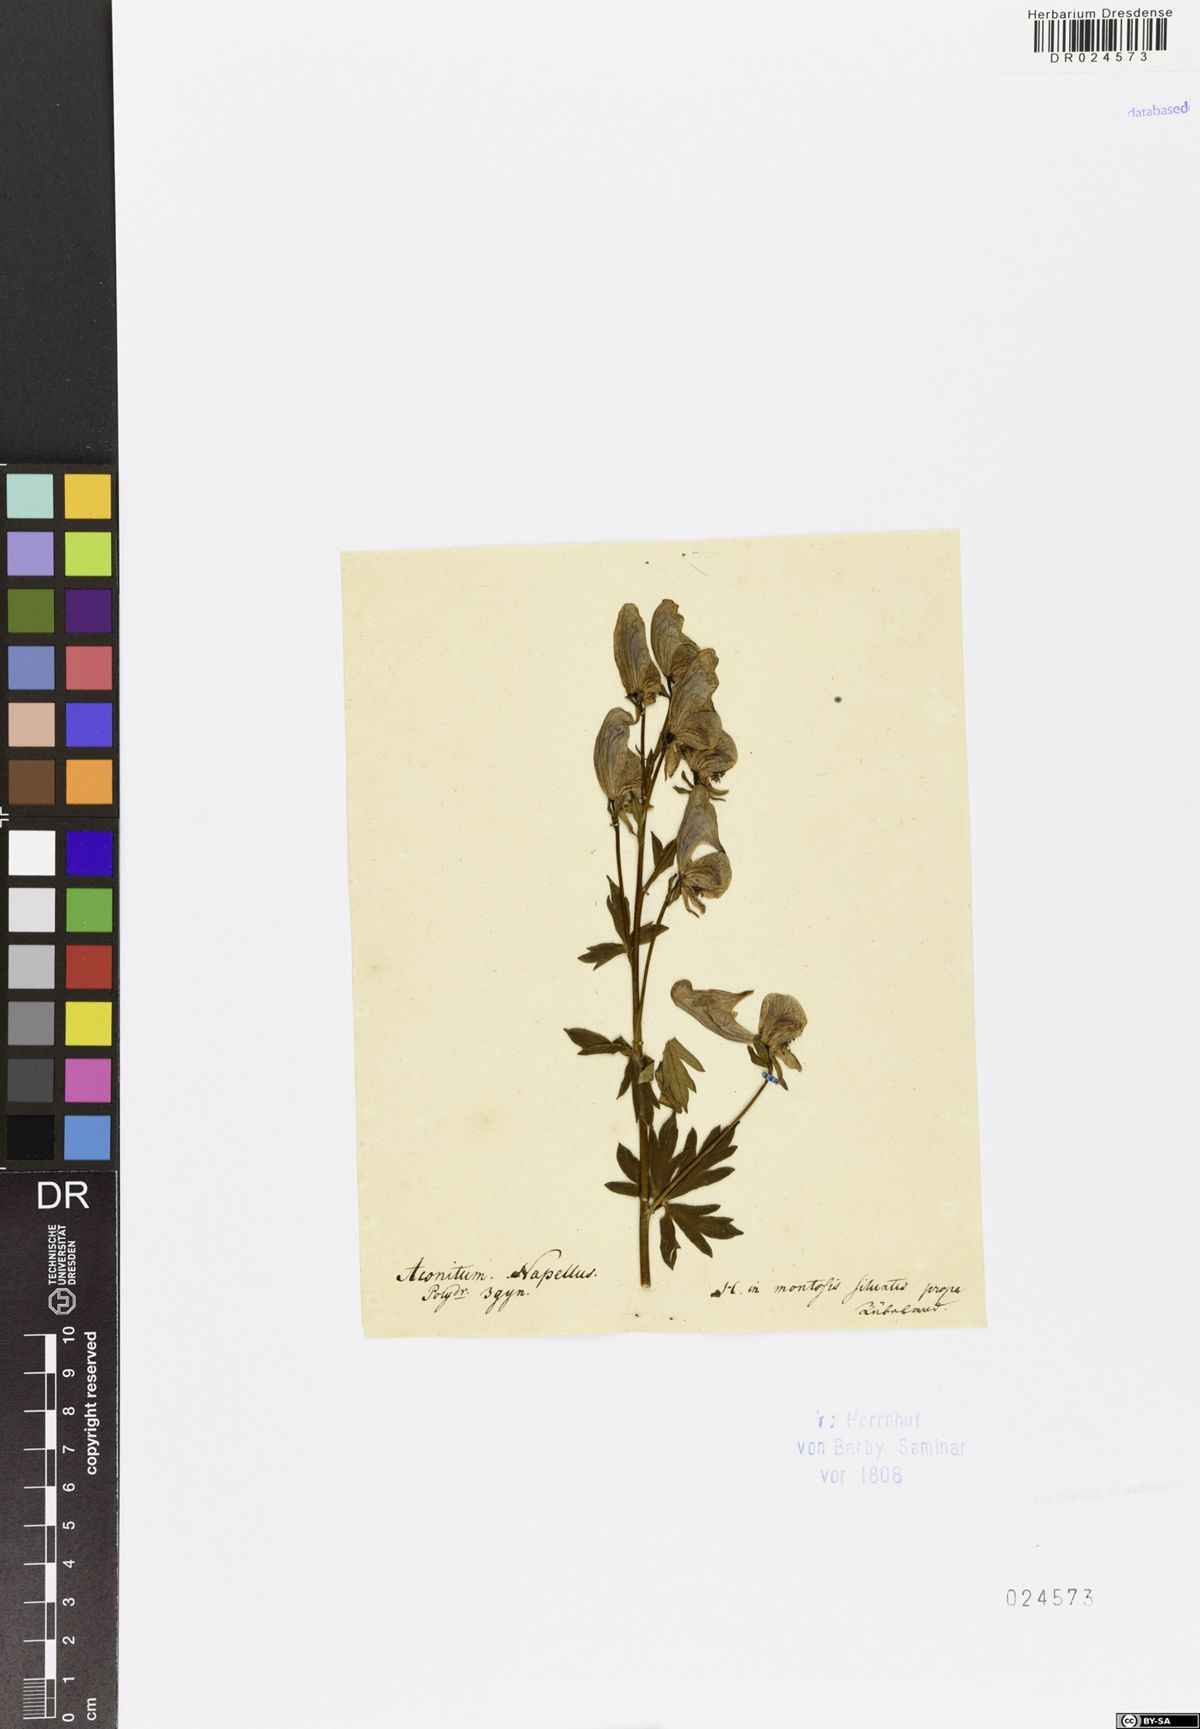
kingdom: Plantae
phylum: Tracheophyta
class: Magnoliopsida
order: Ranunculales
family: Ranunculaceae
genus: Aconitum
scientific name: Aconitum variegatum
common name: Manchurian monkshood
